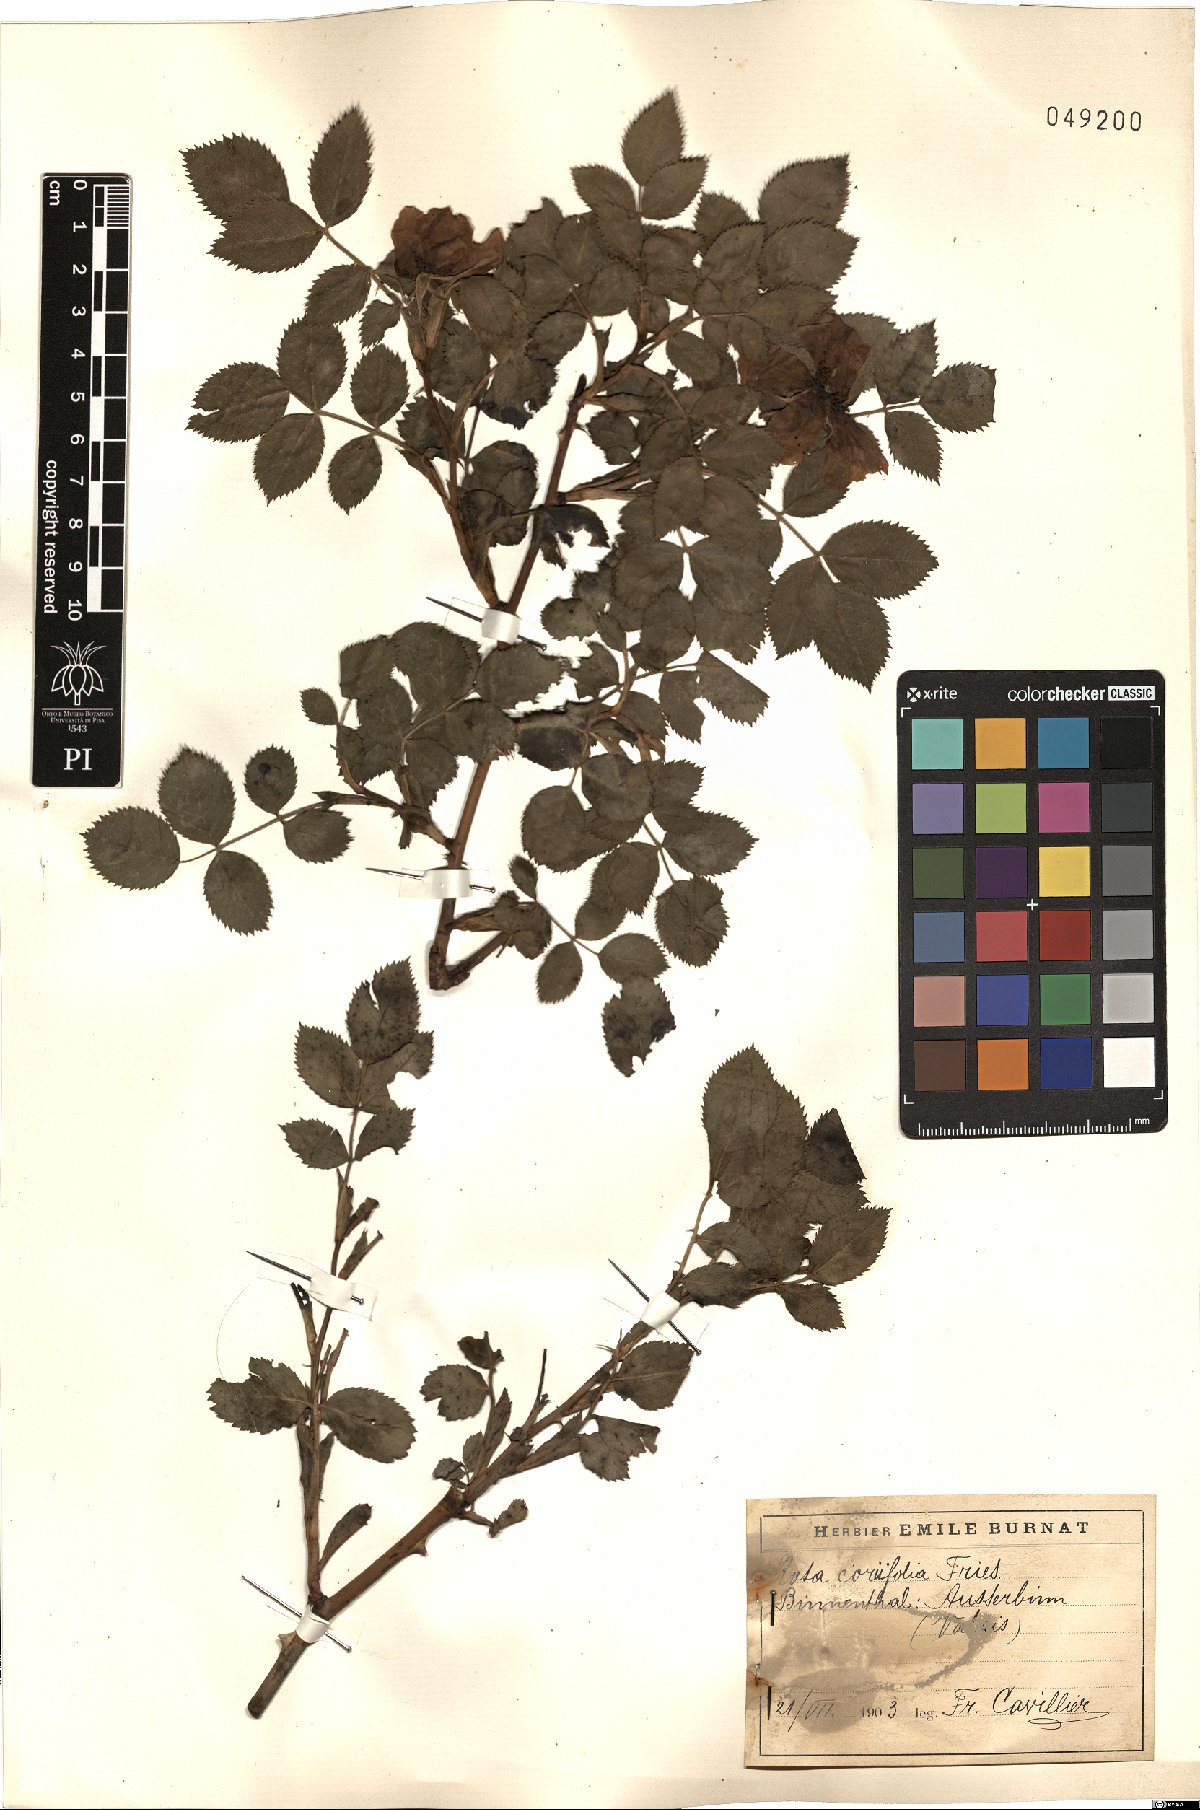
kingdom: Plantae
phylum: Tracheophyta
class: Magnoliopsida
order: Rosales
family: Rosaceae
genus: Rosa
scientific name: Rosa caesia
